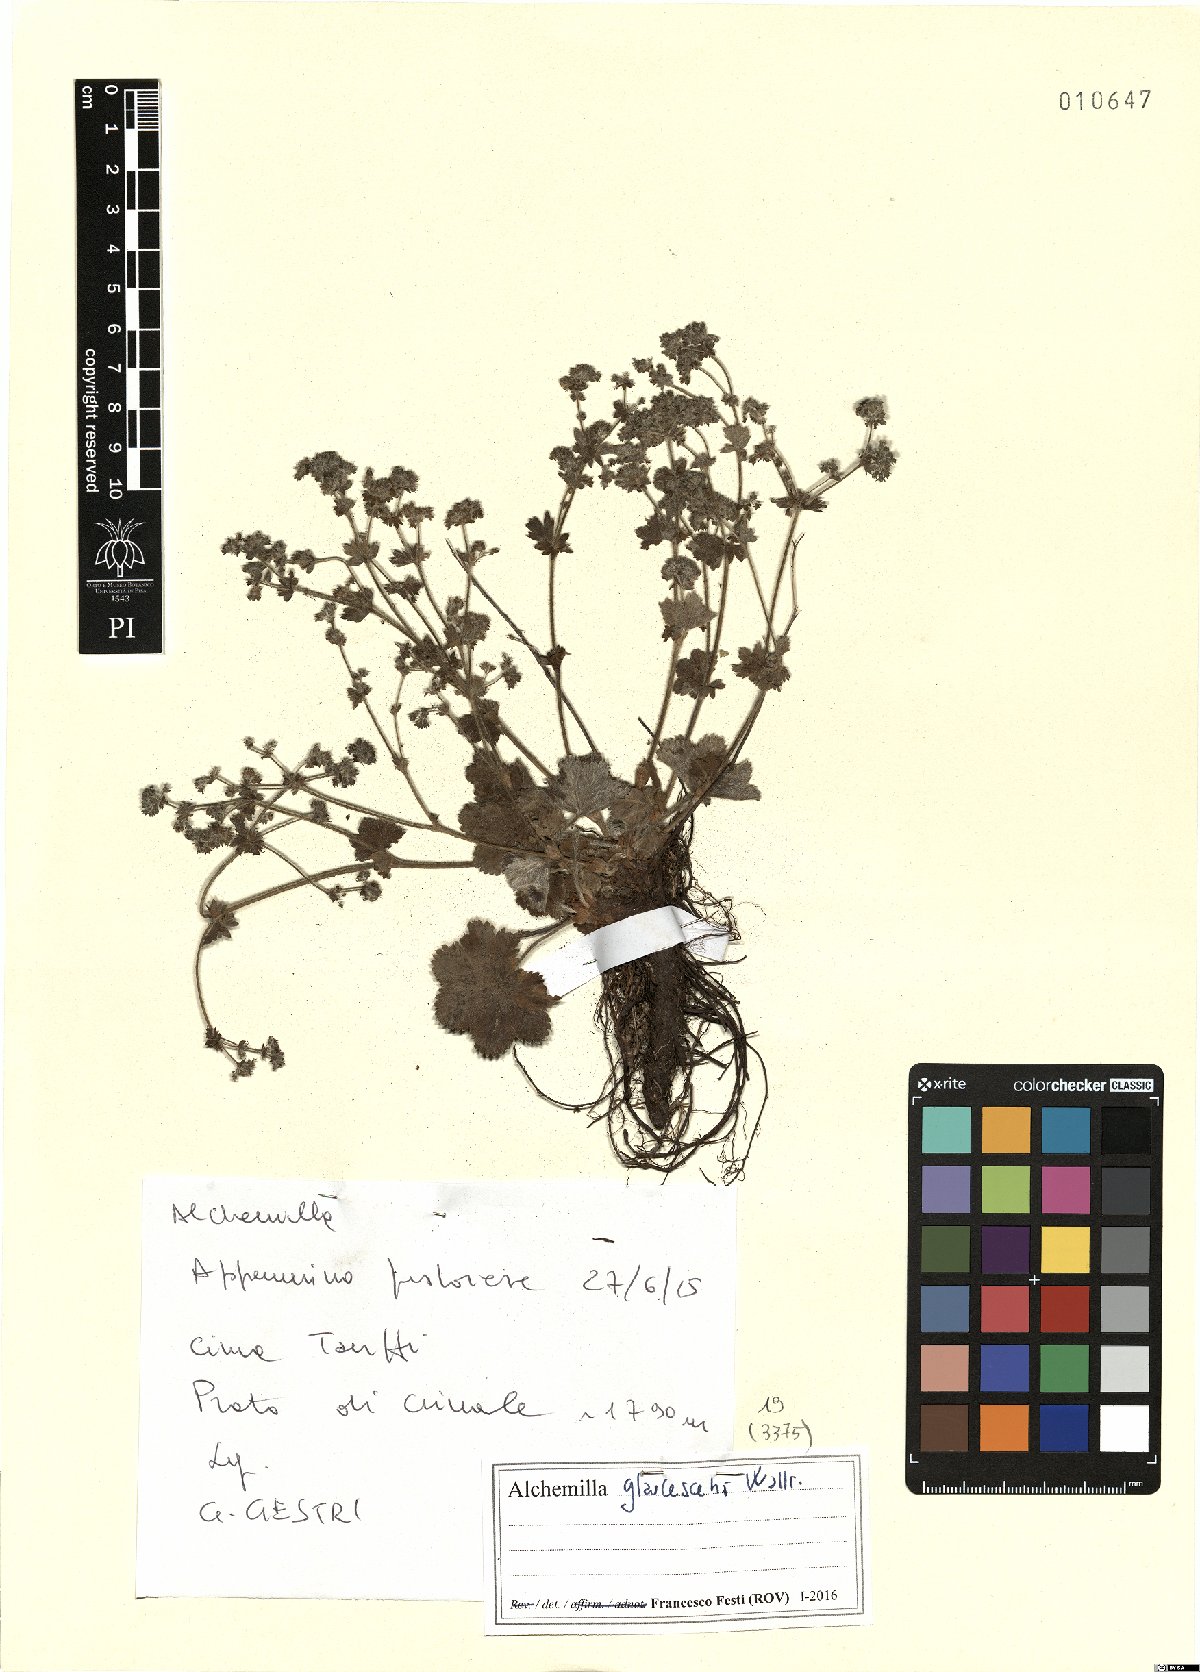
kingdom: Plantae
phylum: Tracheophyta
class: Magnoliopsida
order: Rosales
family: Rosaceae
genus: Alchemilla
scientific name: Alchemilla glaucescens
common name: Silky lady's mantle
